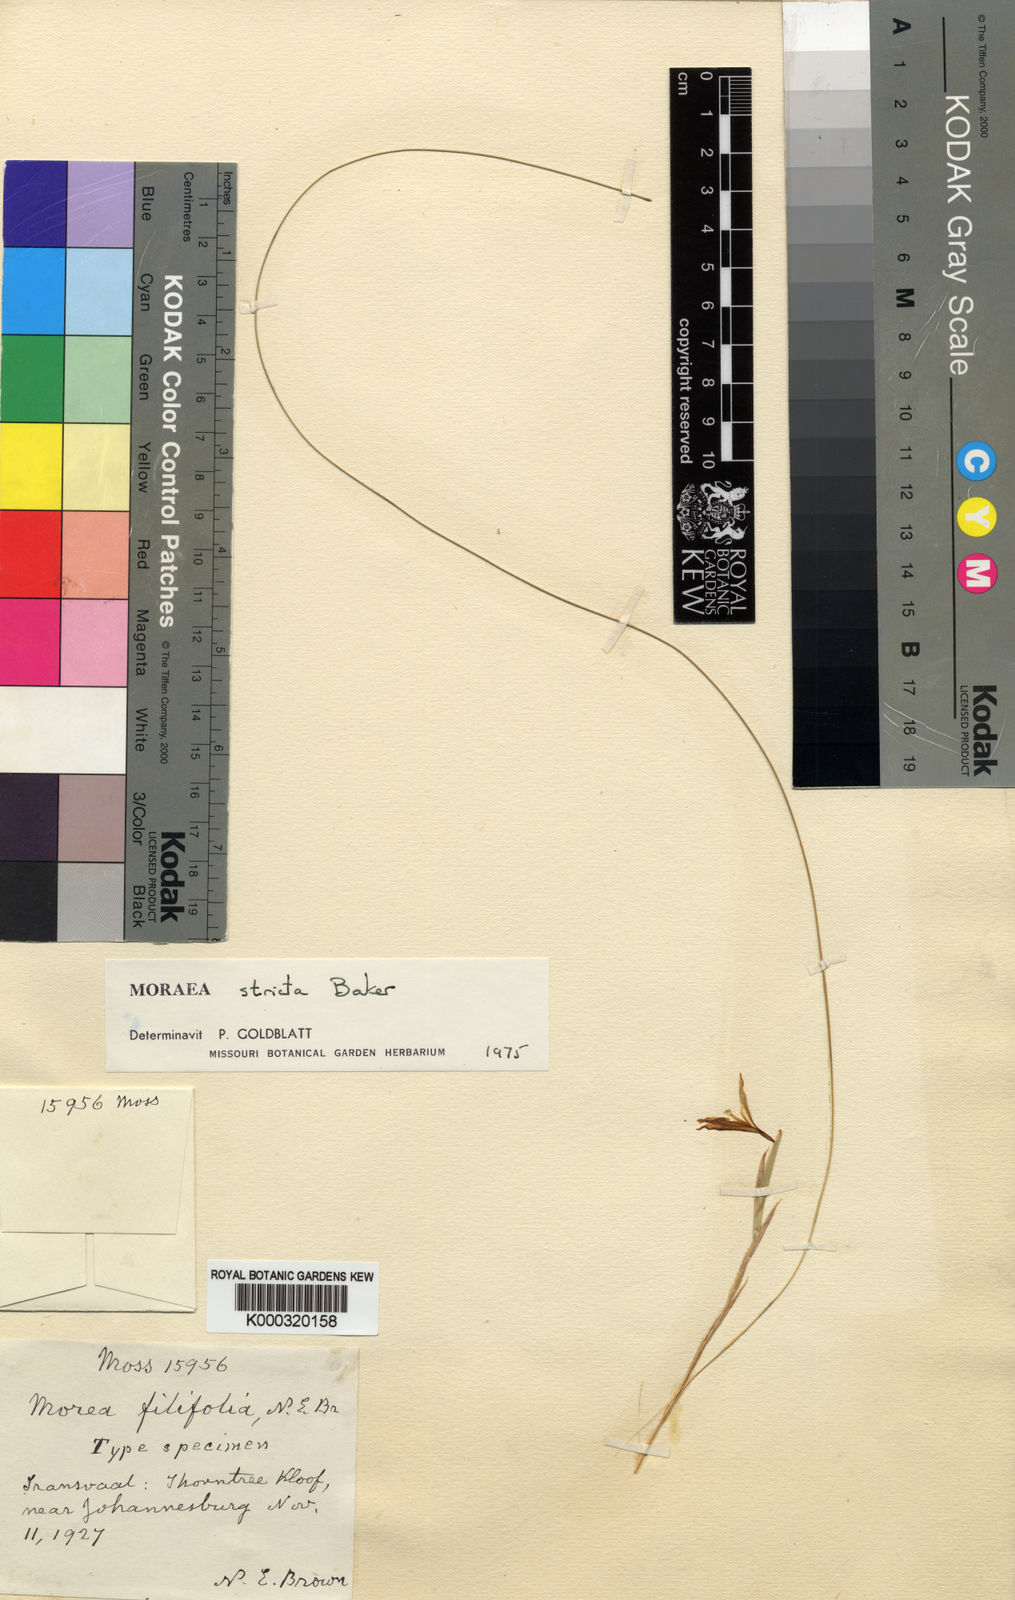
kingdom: Plantae
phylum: Tracheophyta
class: Liliopsida
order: Asparagales
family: Iridaceae
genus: Moraea
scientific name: Moraea stricta
